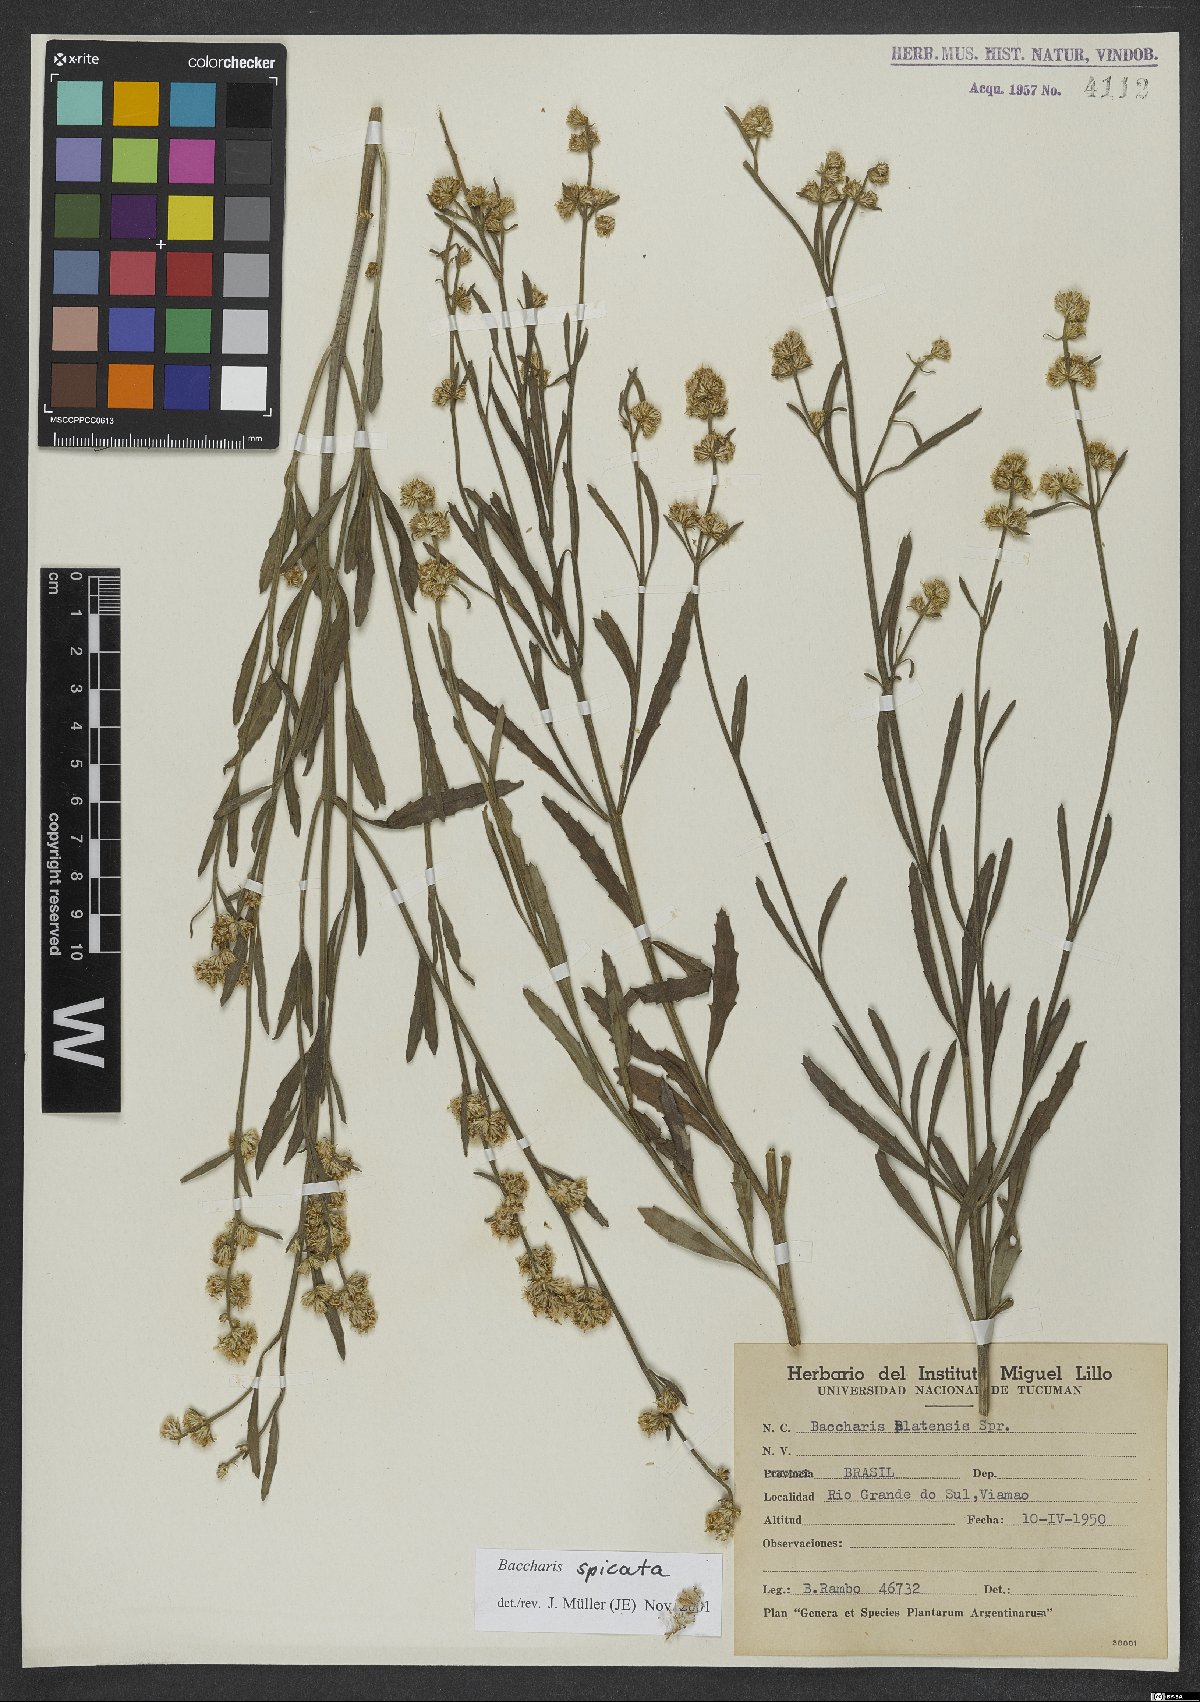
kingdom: Plantae
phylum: Tracheophyta
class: Magnoliopsida
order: Asterales
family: Asteraceae
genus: Baccharis
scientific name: Baccharis spicata
